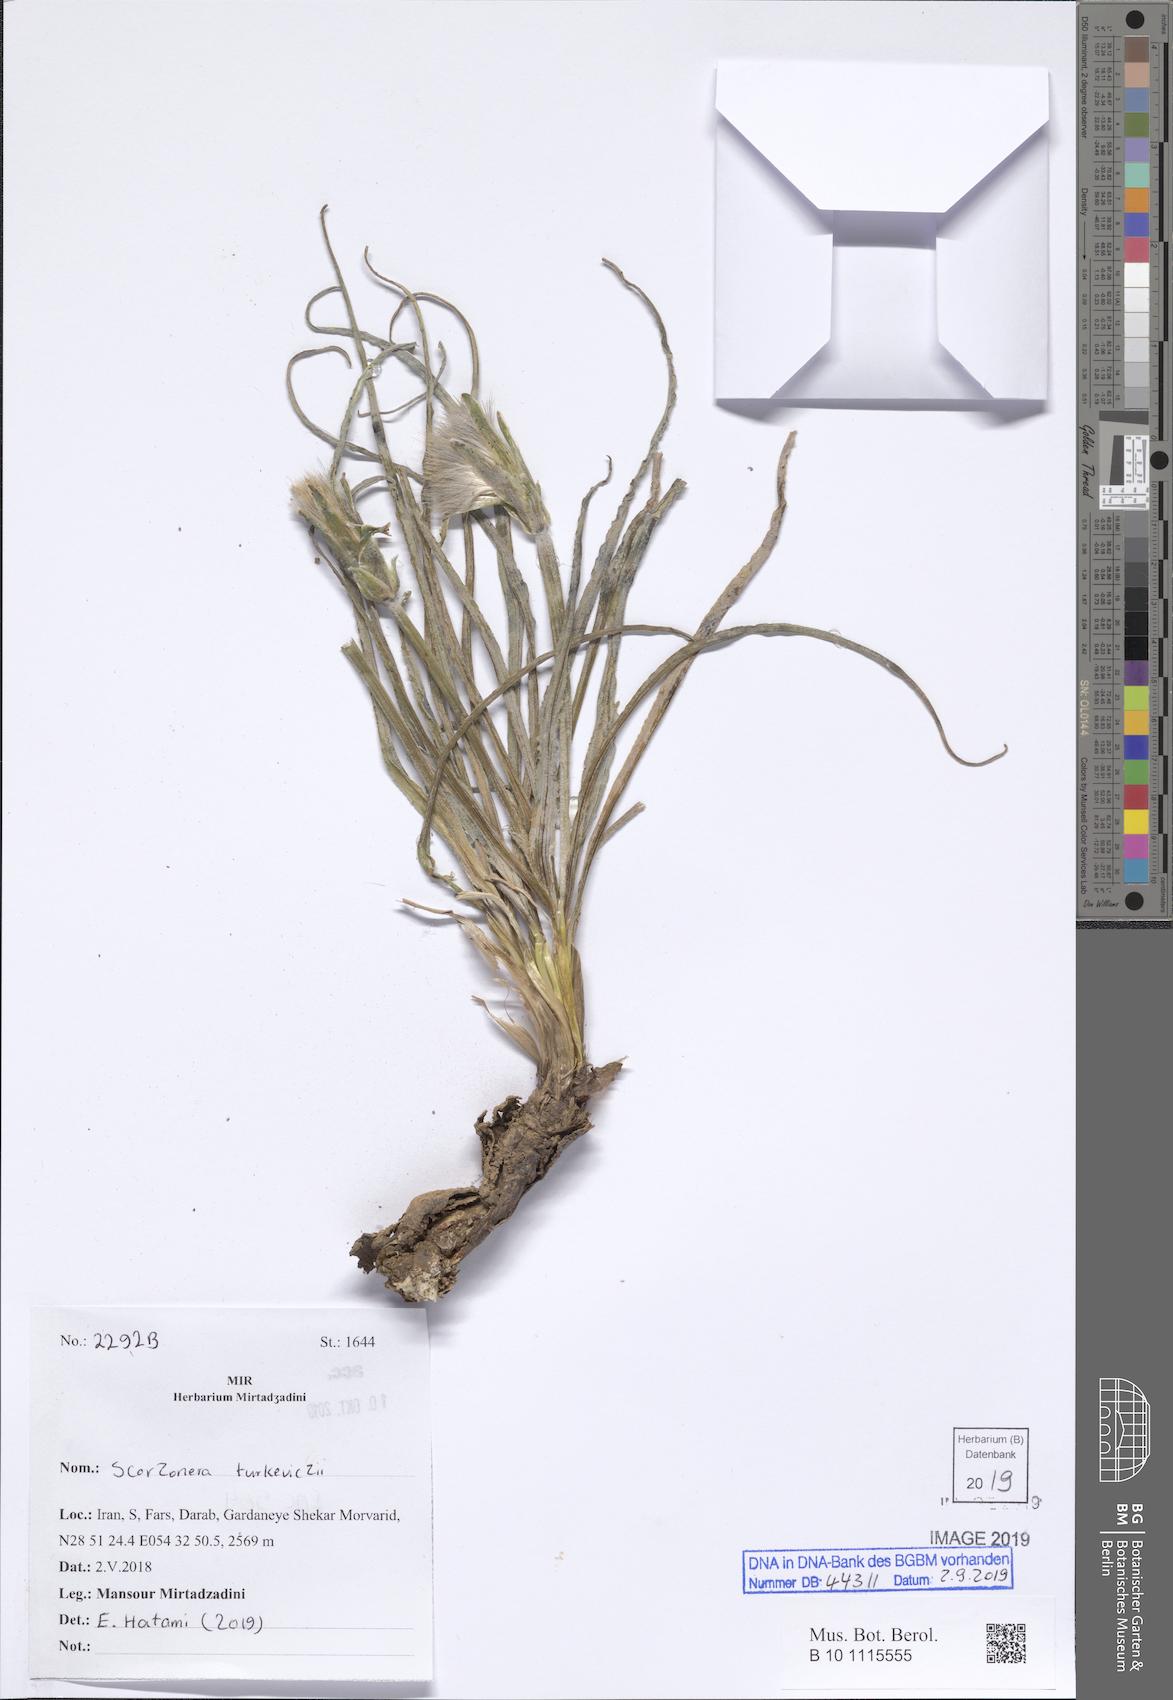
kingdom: Plantae
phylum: Tracheophyta
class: Magnoliopsida
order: Asterales
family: Asteraceae
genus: Candollea
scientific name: Candollea mucida
